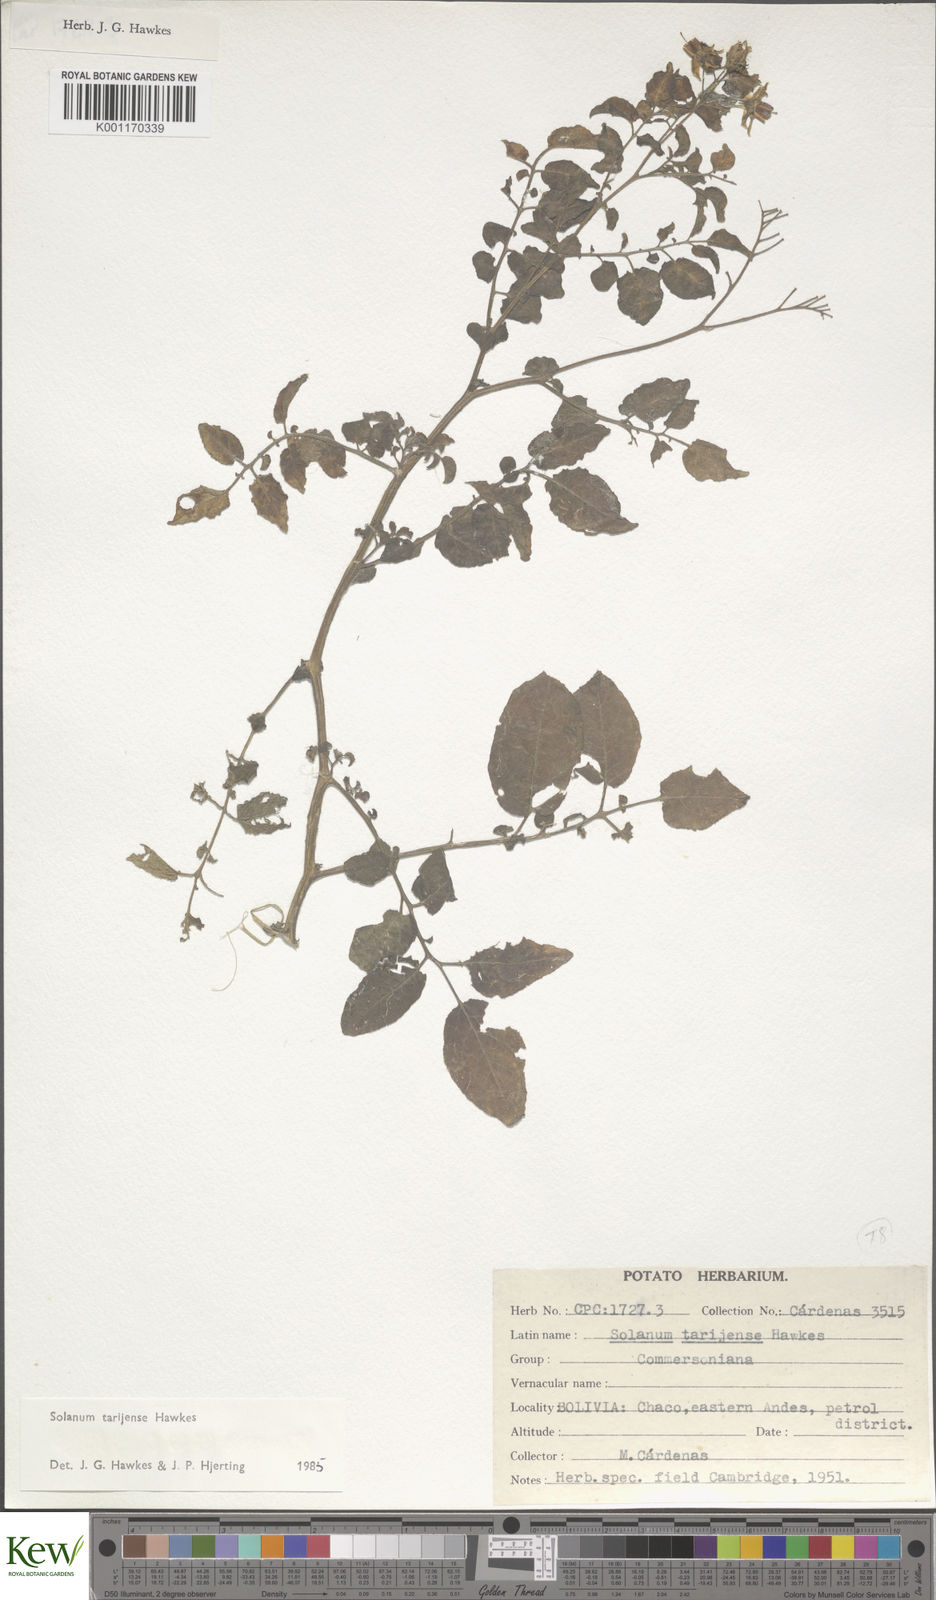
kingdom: Plantae
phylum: Tracheophyta
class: Magnoliopsida
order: Solanales
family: Solanaceae
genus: Solanum
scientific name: Solanum tarijense
